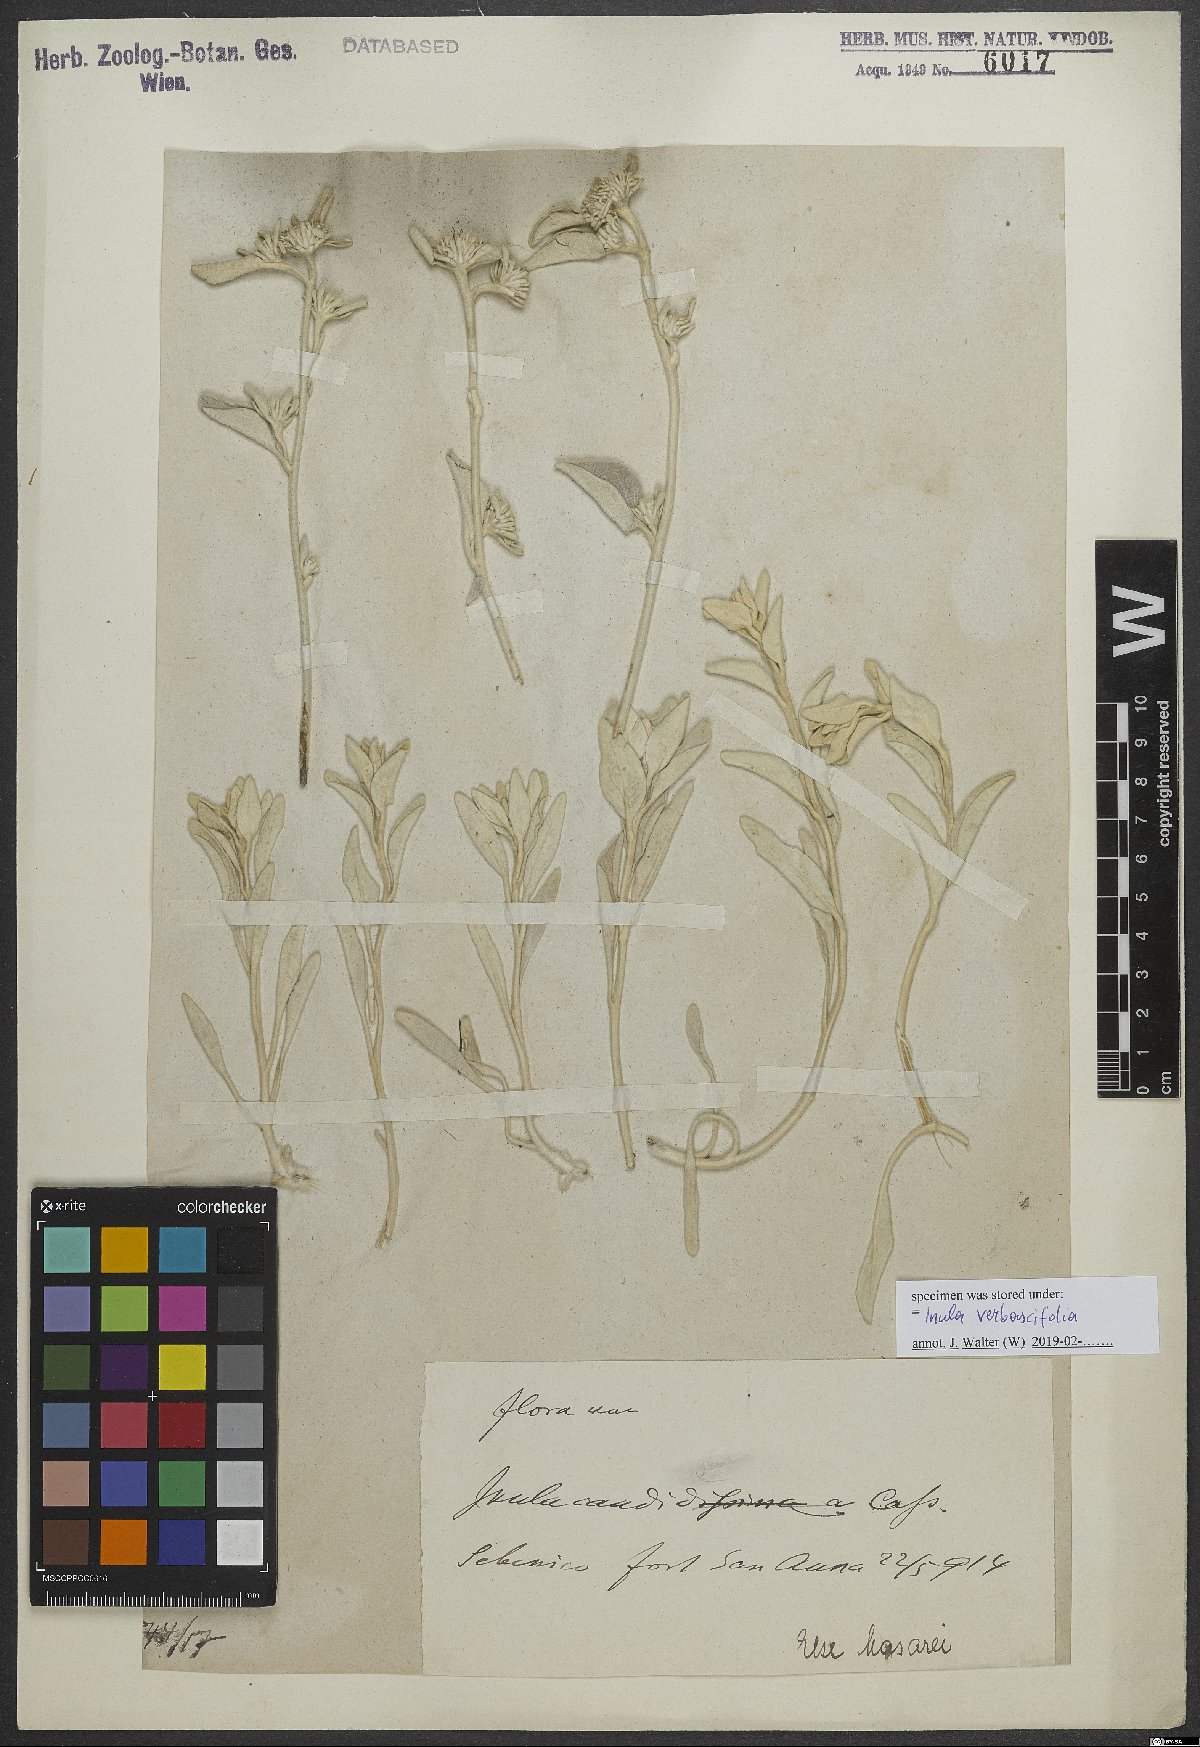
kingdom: Plantae
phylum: Tracheophyta
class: Magnoliopsida
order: Asterales
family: Asteraceae
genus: Pentanema
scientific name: Pentanema verbascifolium
